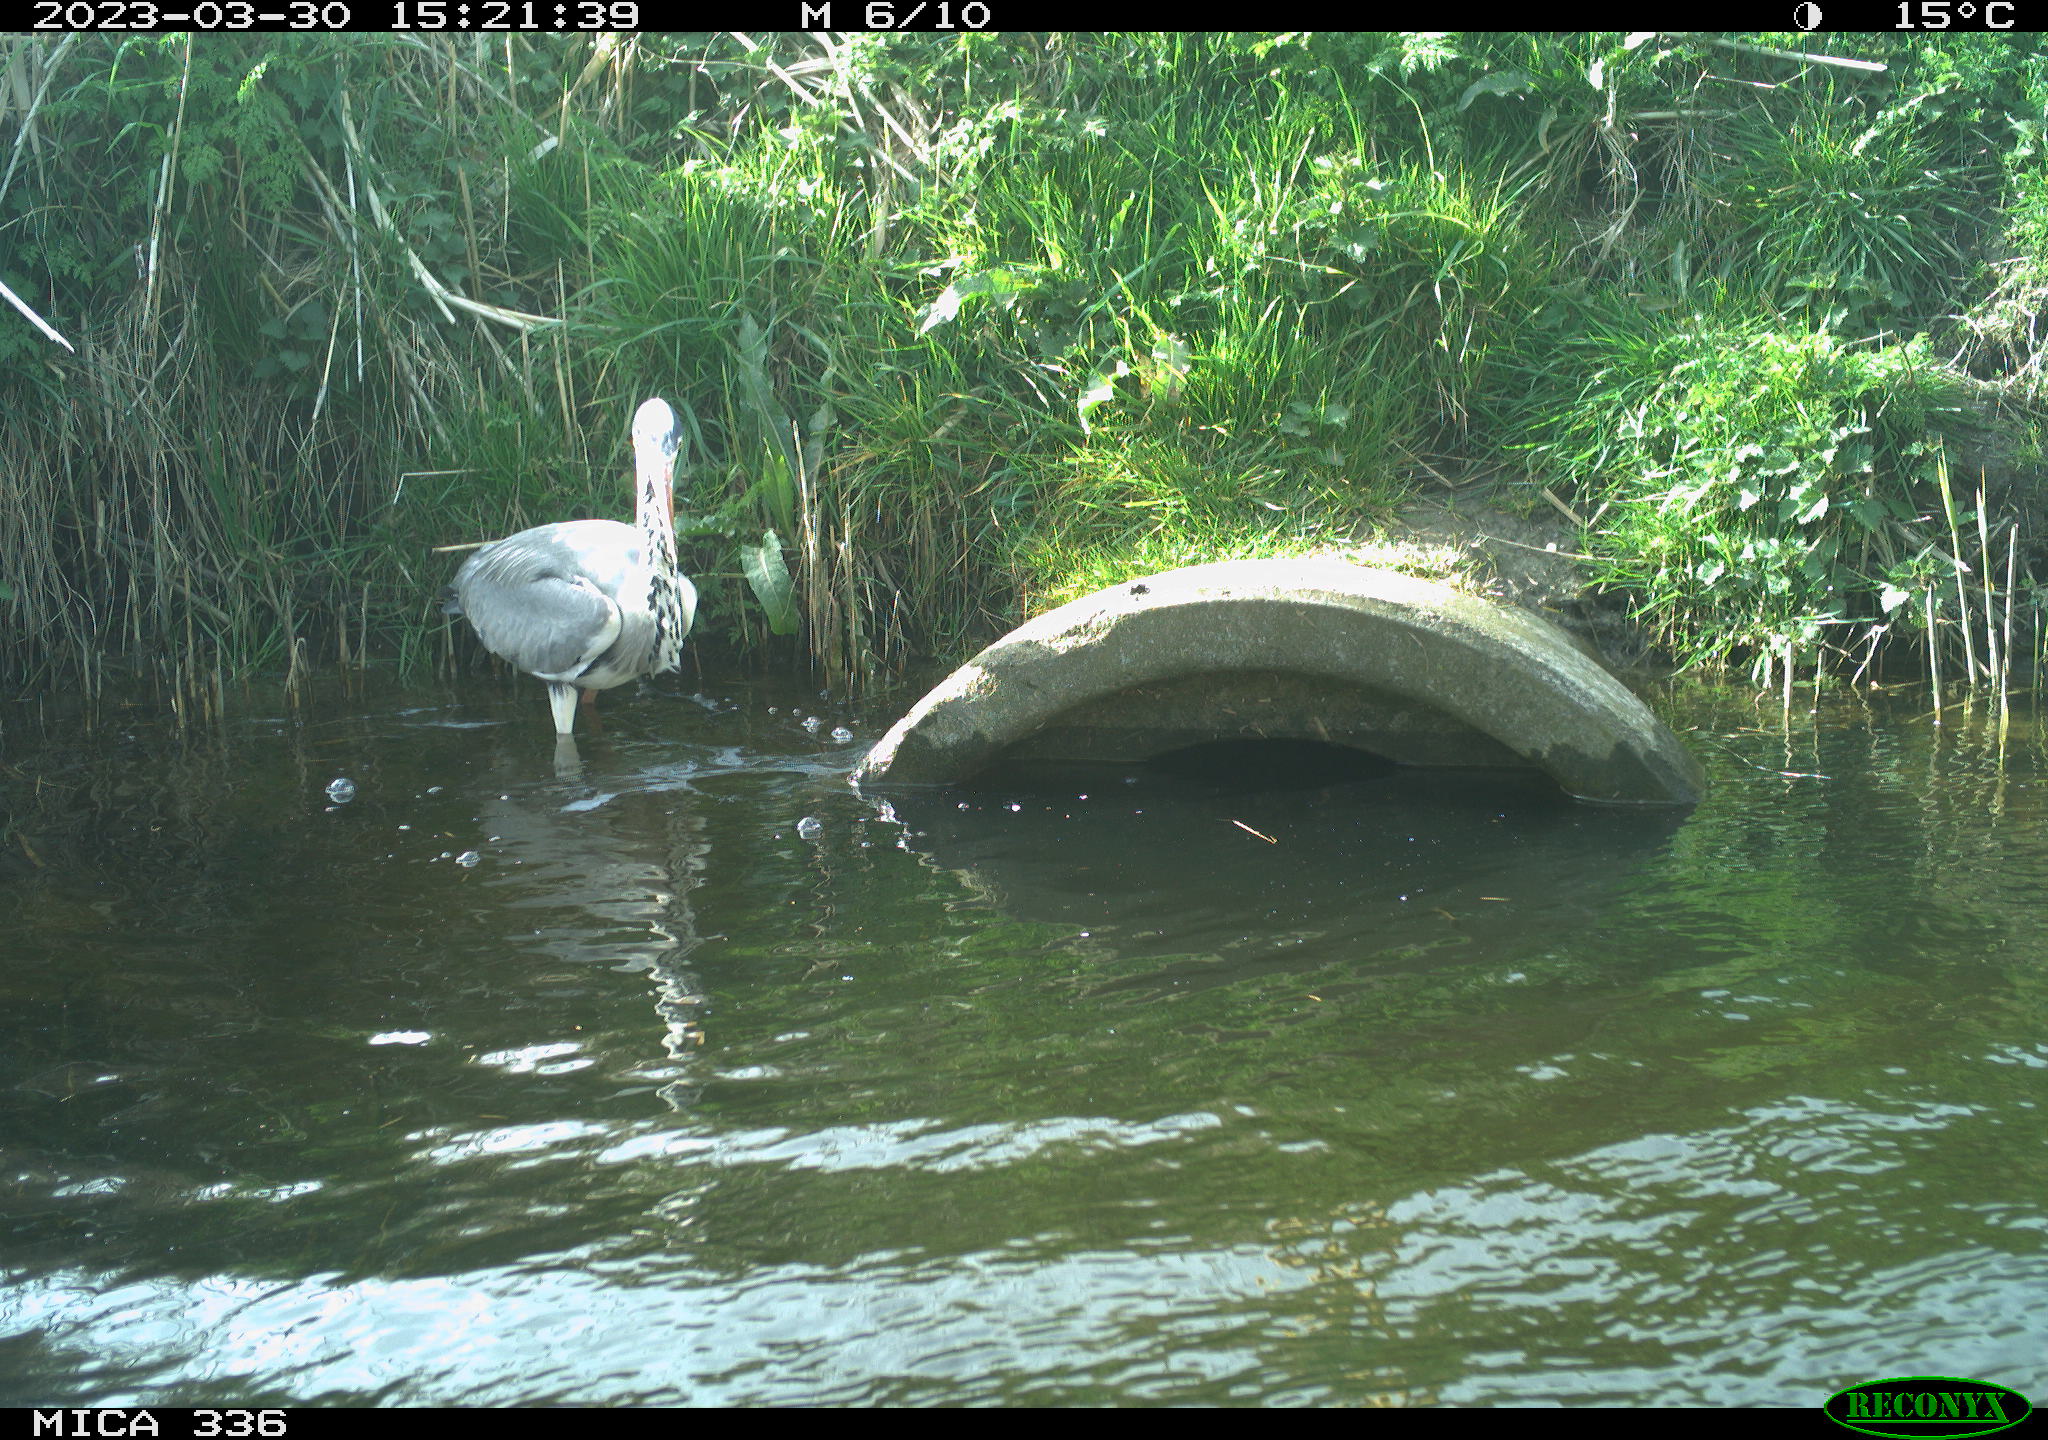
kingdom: Animalia
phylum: Chordata
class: Aves
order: Pelecaniformes
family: Ardeidae
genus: Ardea
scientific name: Ardea
